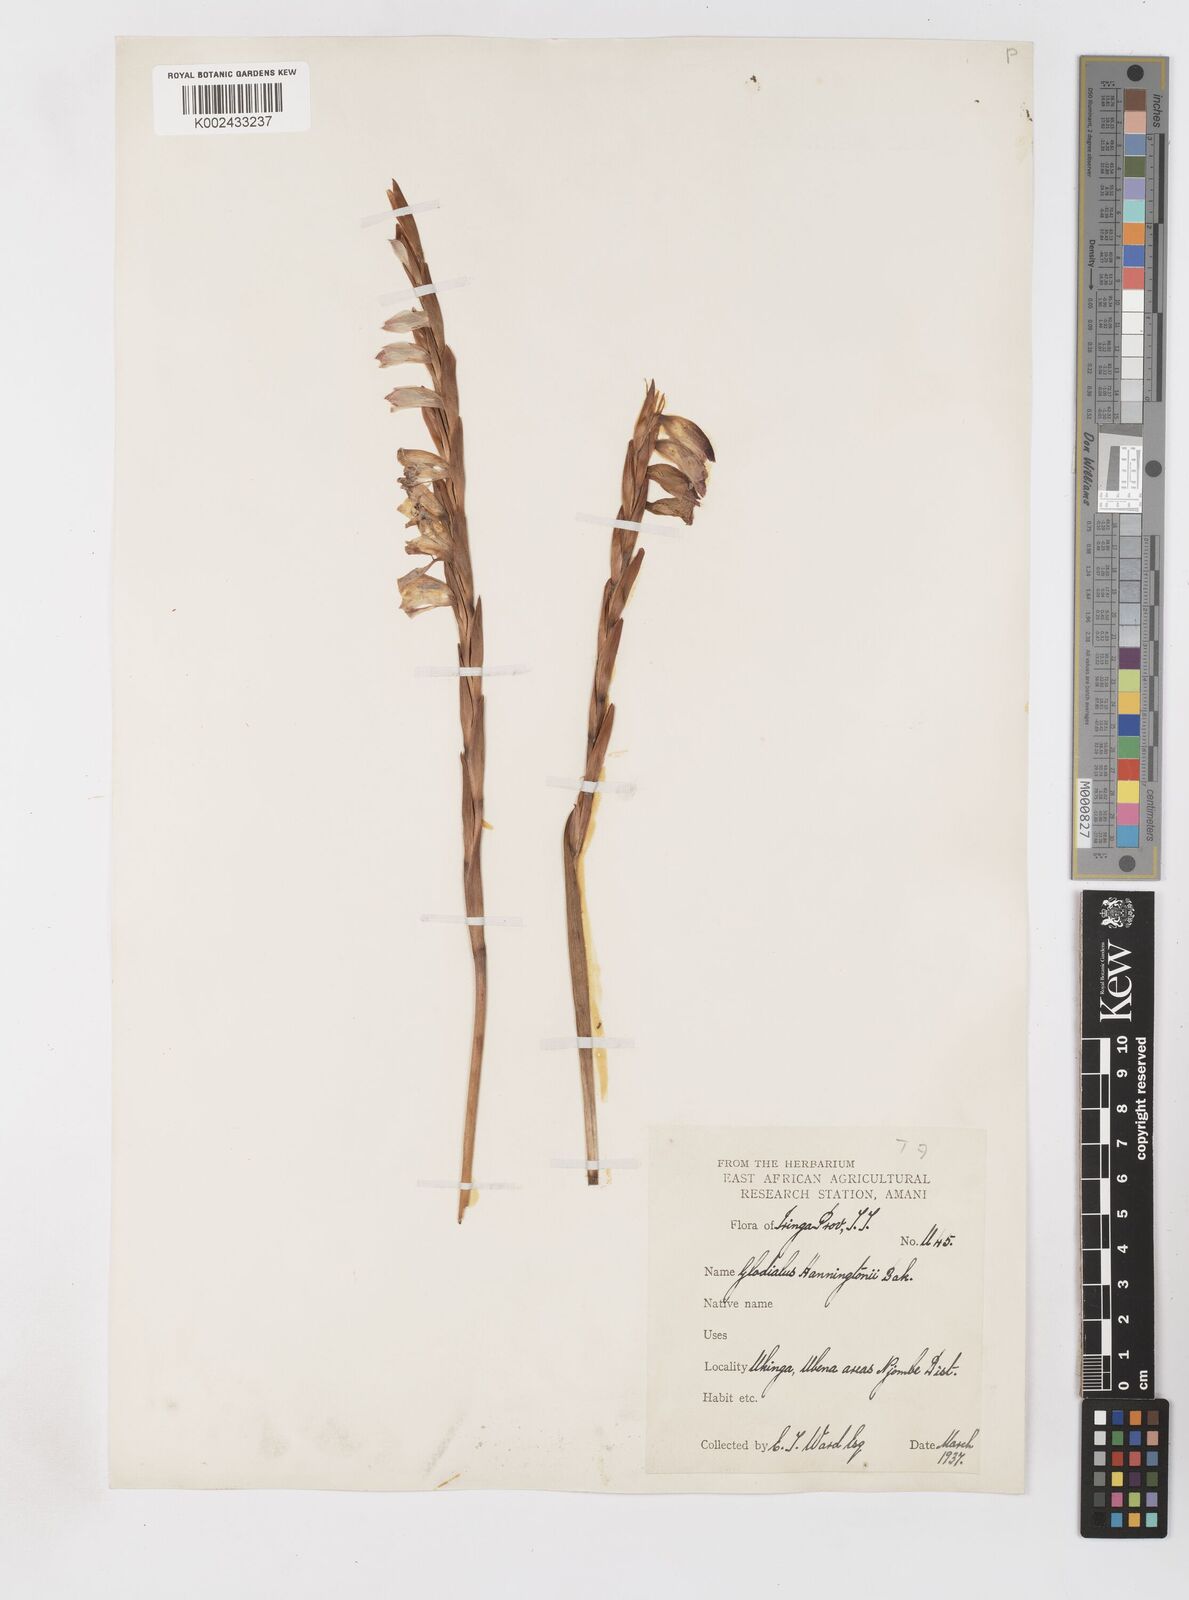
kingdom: Plantae
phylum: Tracheophyta
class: Liliopsida
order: Asparagales
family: Iridaceae
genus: Gladiolus
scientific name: Gladiolus gregarius
